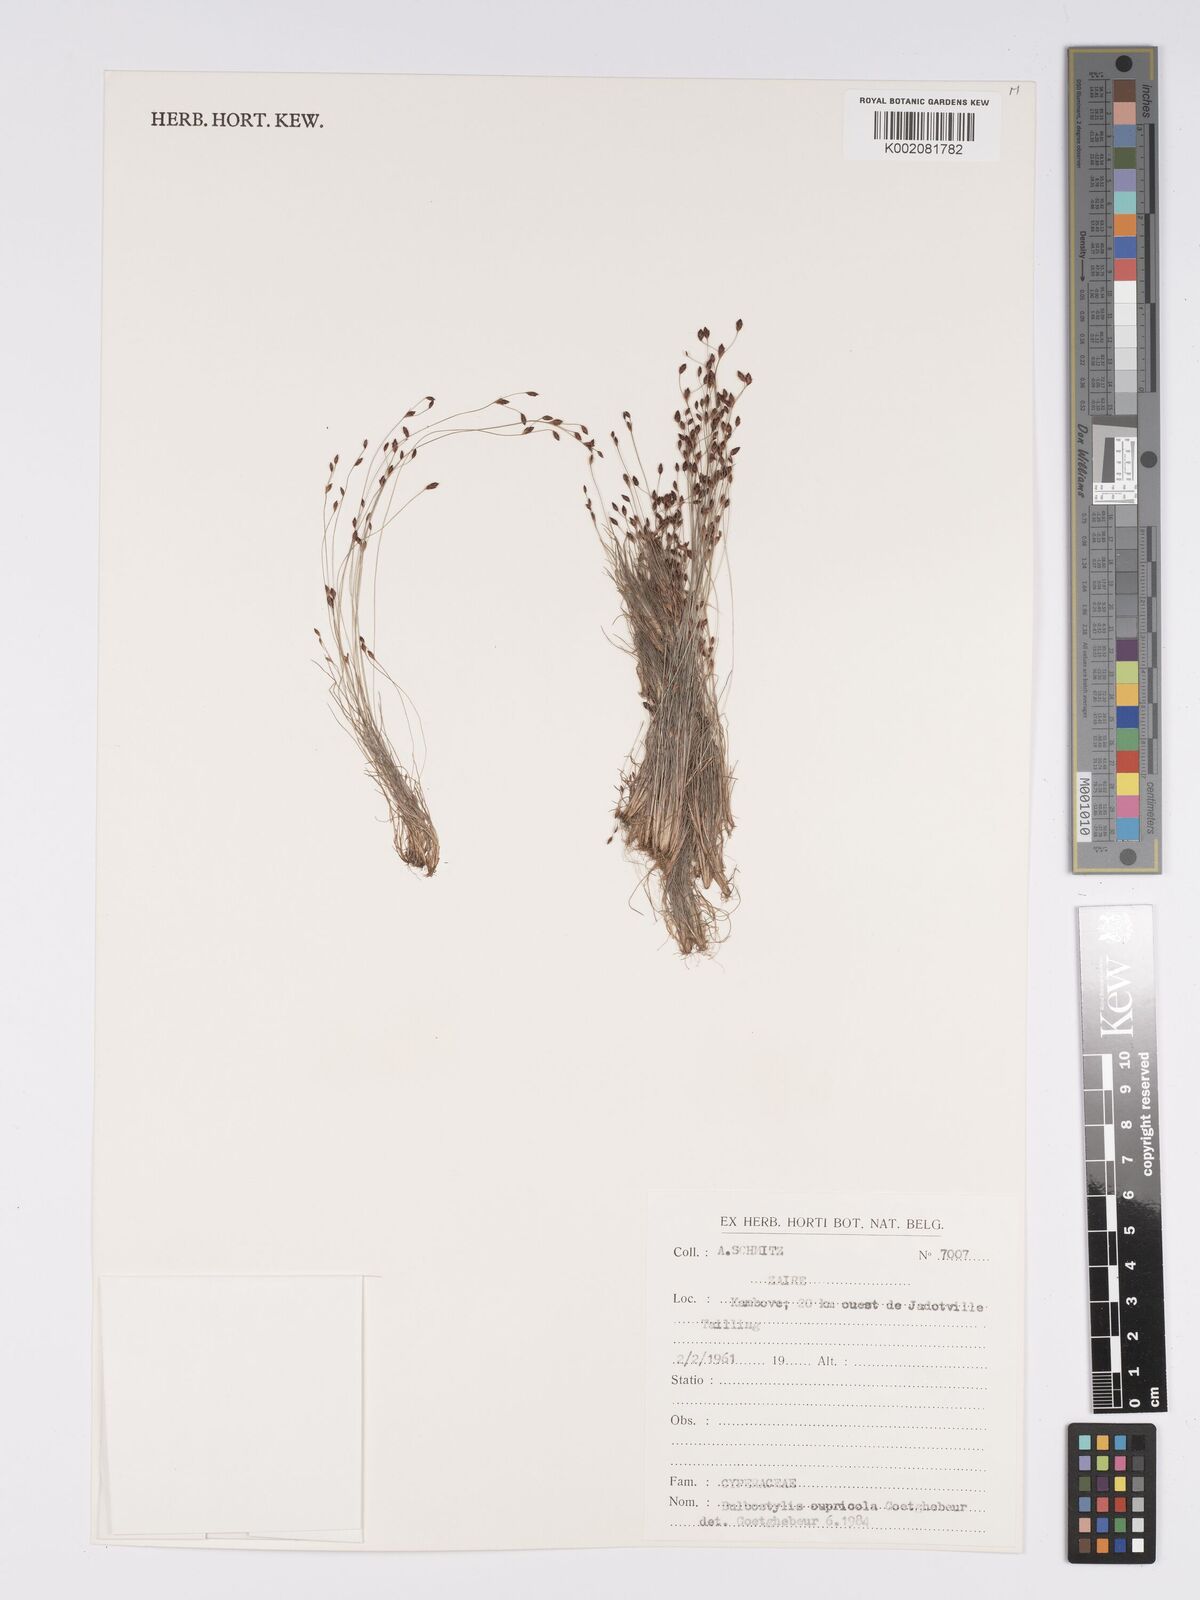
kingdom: Plantae
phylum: Tracheophyta
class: Liliopsida
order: Poales
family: Cyperaceae
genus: Bulbostylis
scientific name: Bulbostylis cupricola
